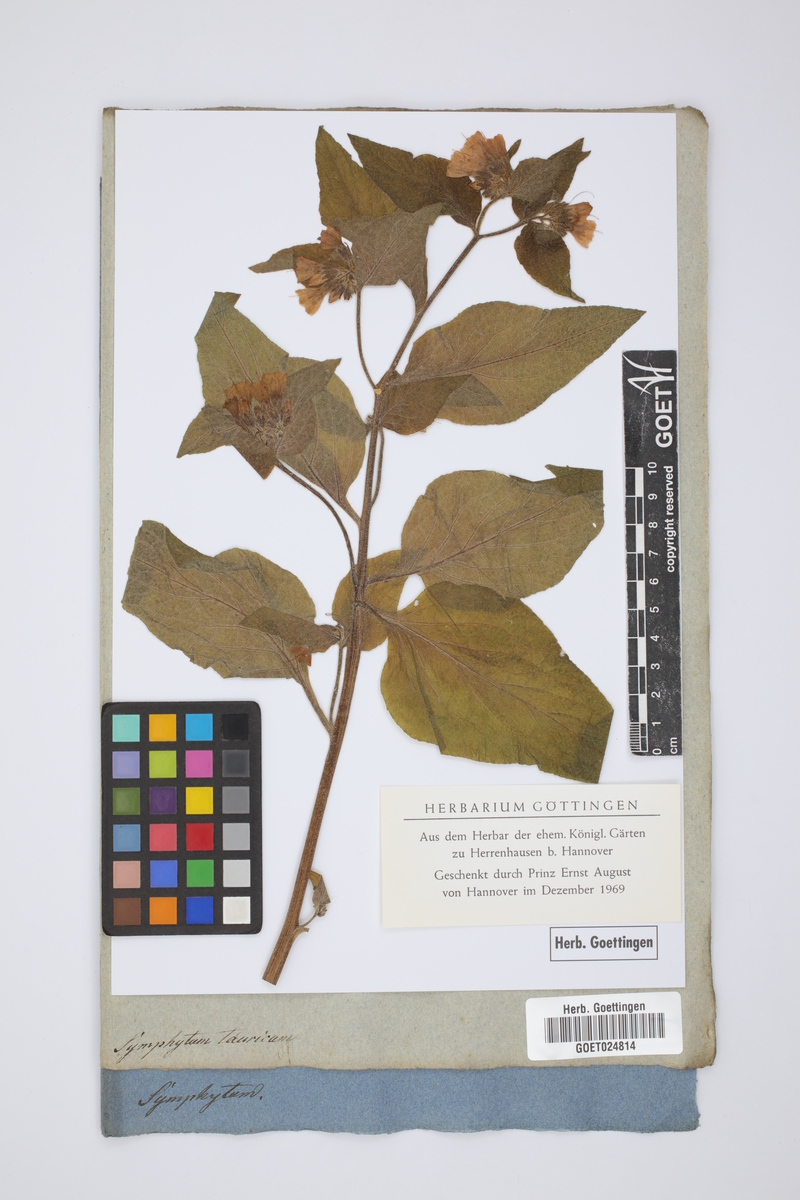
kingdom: Plantae
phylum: Tracheophyta
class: Magnoliopsida
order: Boraginales
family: Boraginaceae
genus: Symphytum
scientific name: Symphytum tauricum
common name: Crimean comfrey
